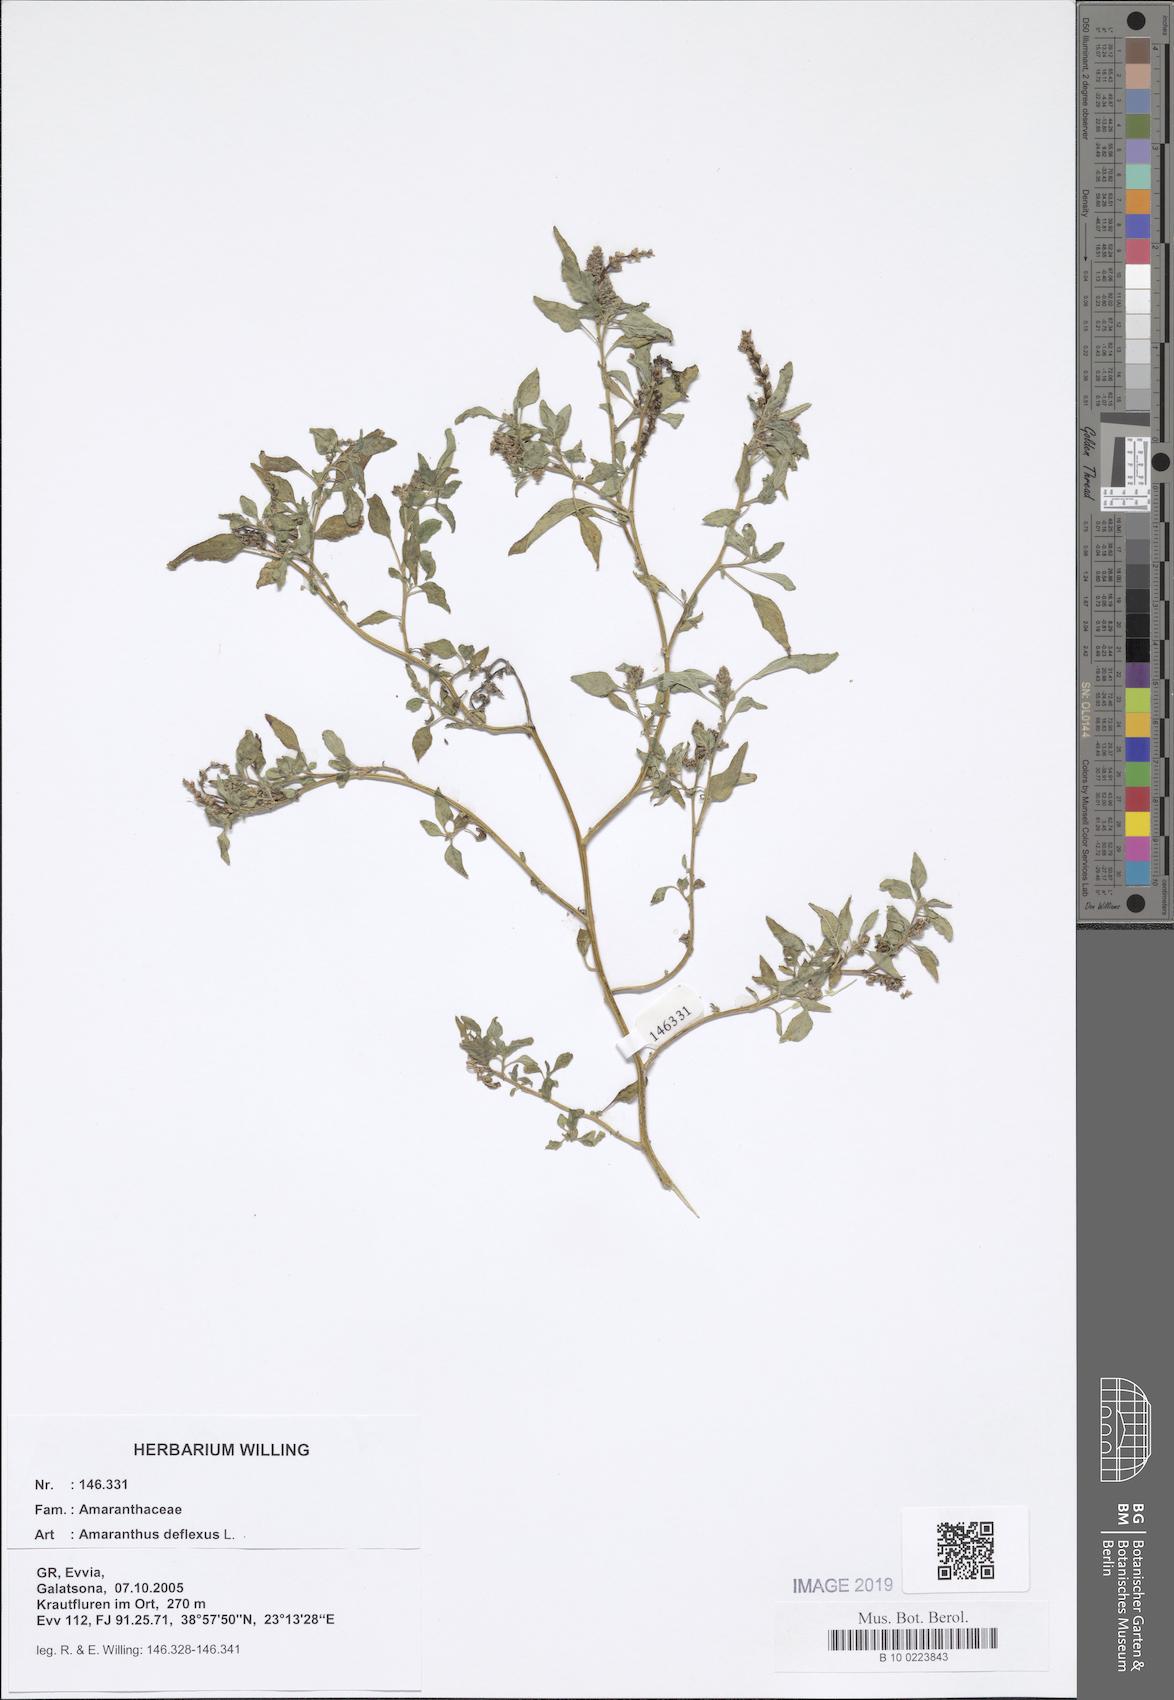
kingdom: Plantae
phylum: Tracheophyta
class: Magnoliopsida
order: Caryophyllales
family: Amaranthaceae
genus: Amaranthus
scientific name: Amaranthus deflexus
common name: Perennial pigweed
